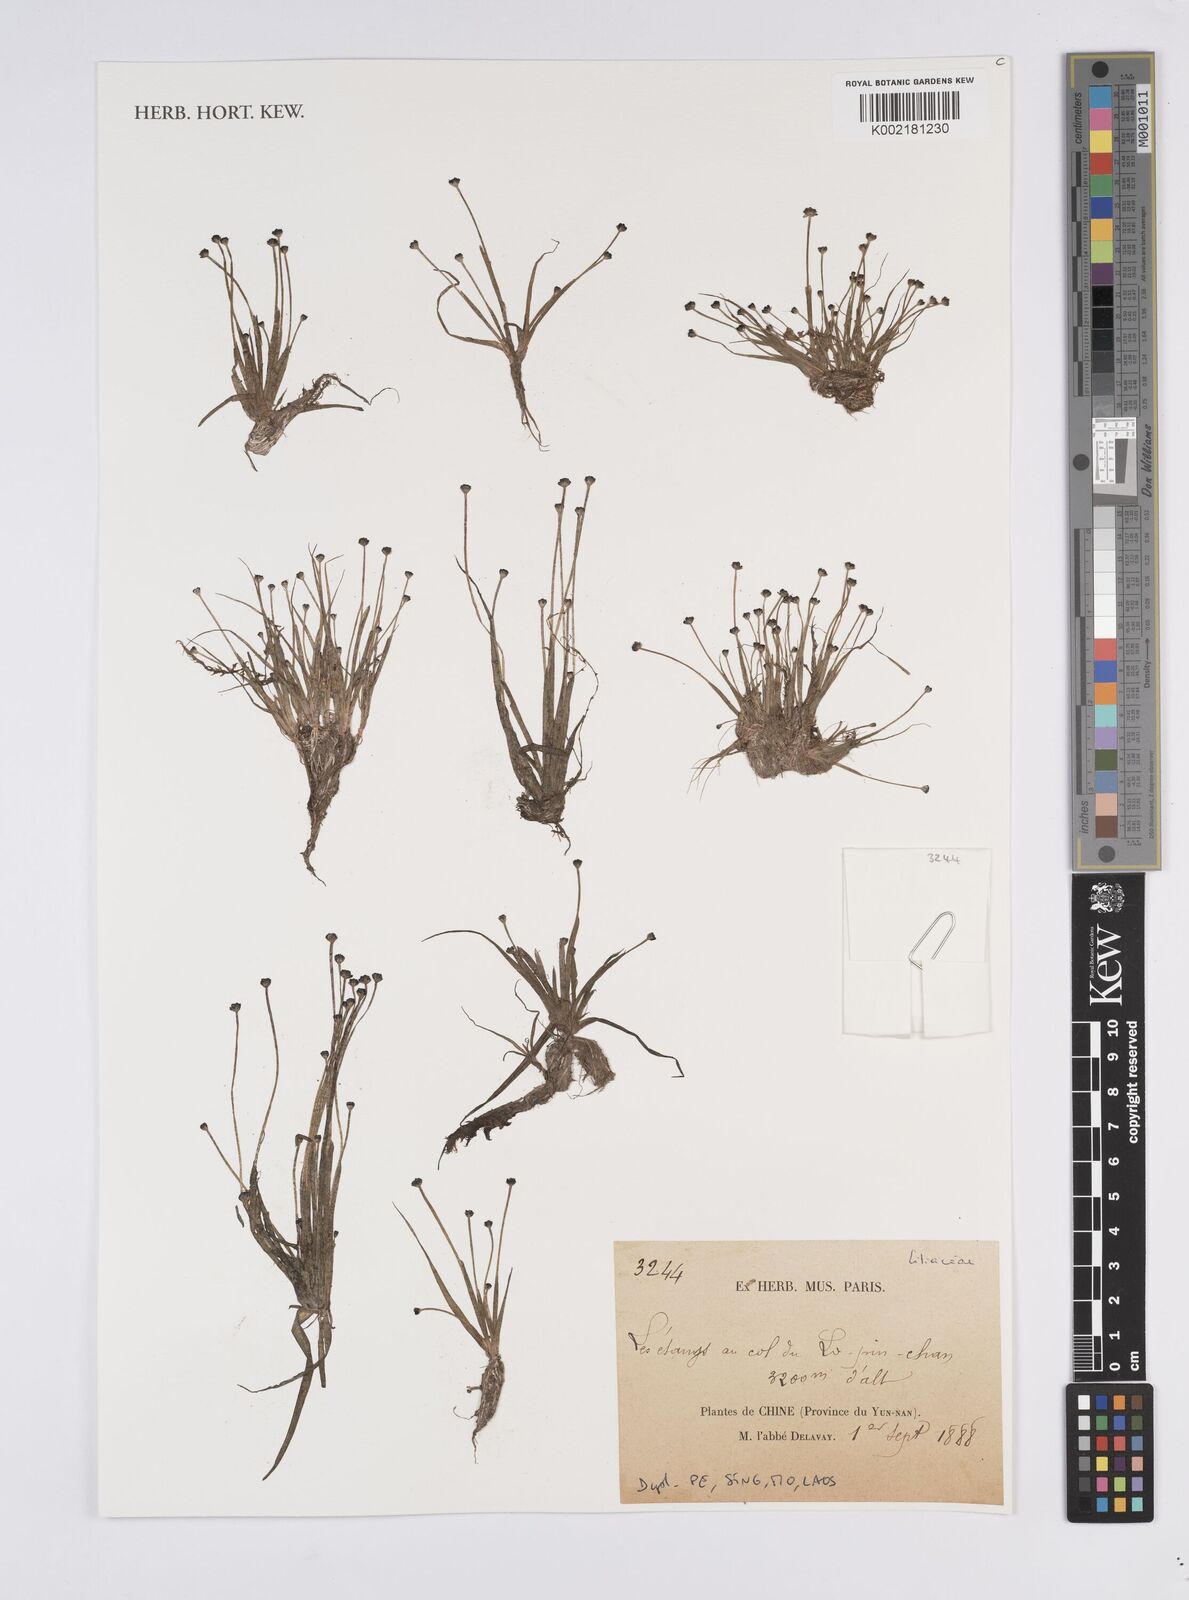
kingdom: Plantae
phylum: Tracheophyta
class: Liliopsida
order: Poales
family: Eriocaulaceae
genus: Eriocaulon
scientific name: Eriocaulon
